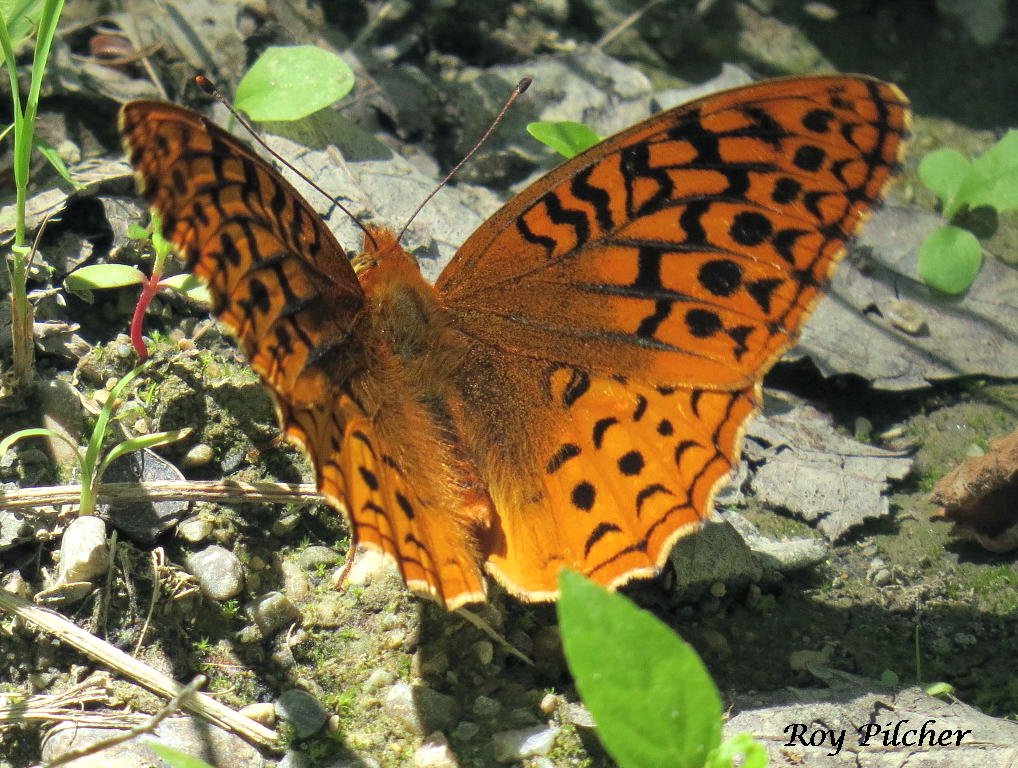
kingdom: Animalia
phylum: Arthropoda
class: Insecta
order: Lepidoptera
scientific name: Lepidoptera
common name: Butterflies
